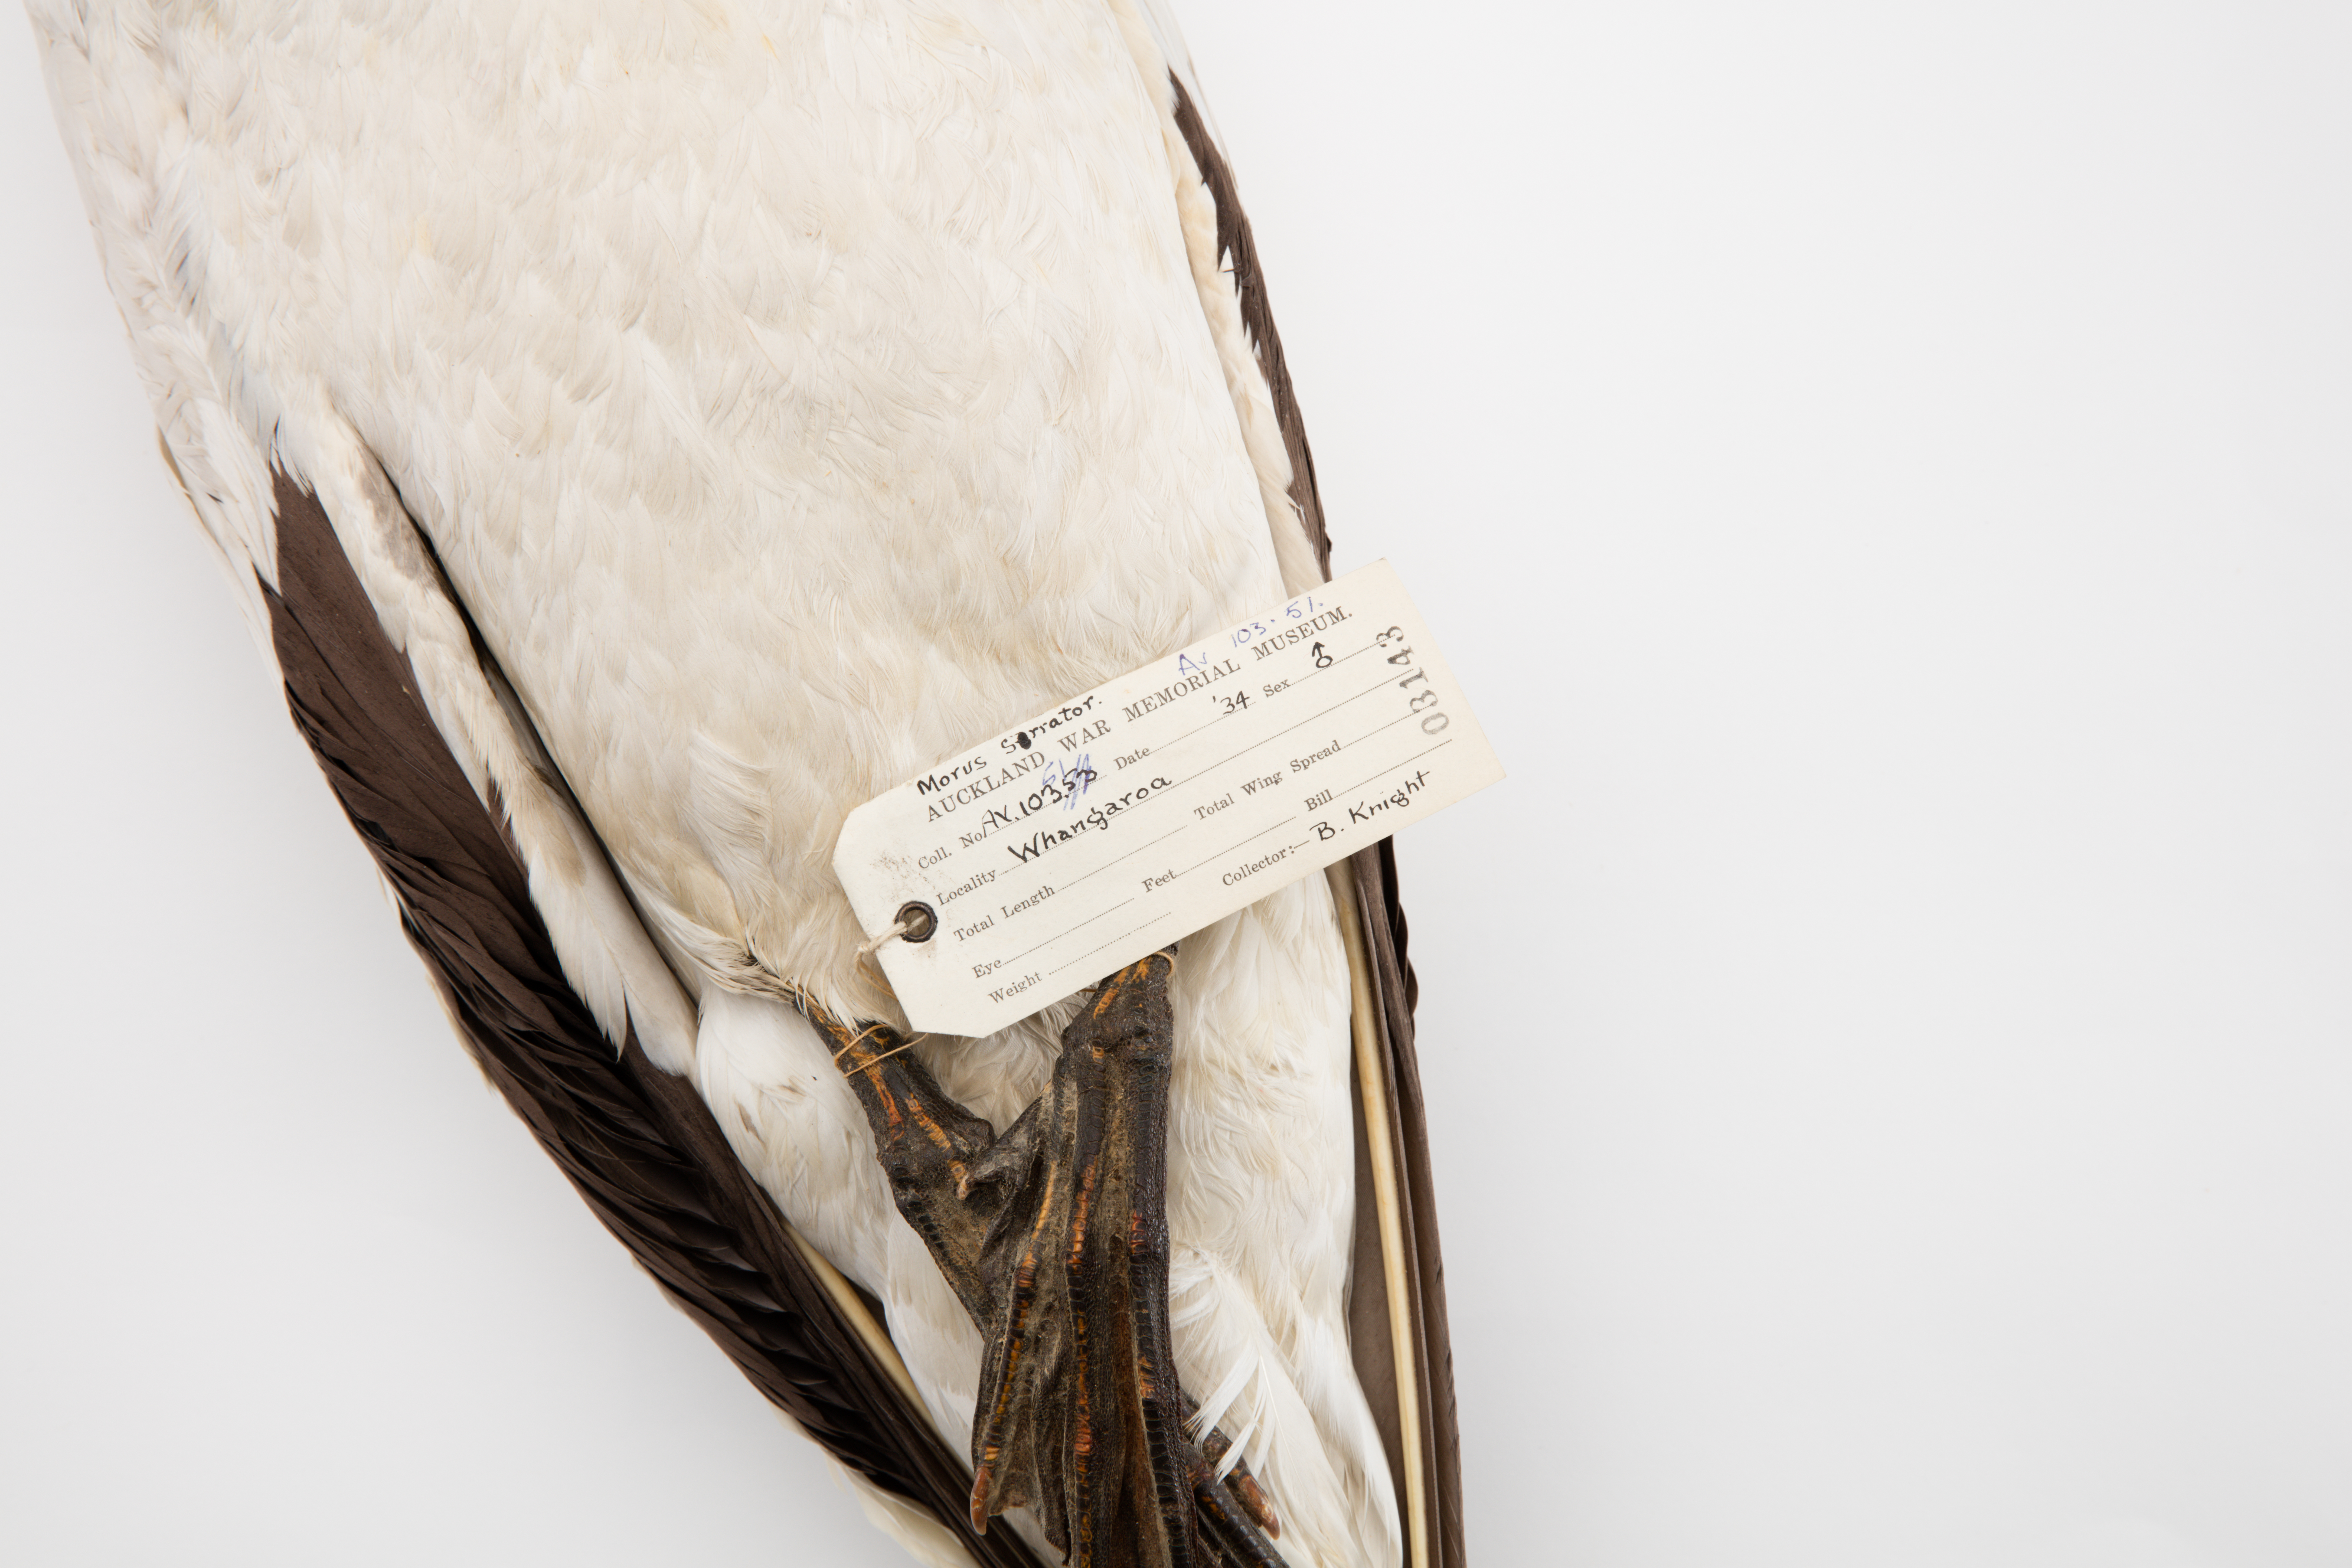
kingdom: Animalia
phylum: Chordata
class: Aves
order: Suliformes
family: Sulidae
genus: Morus
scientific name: Morus serrator
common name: Australasian gannet
